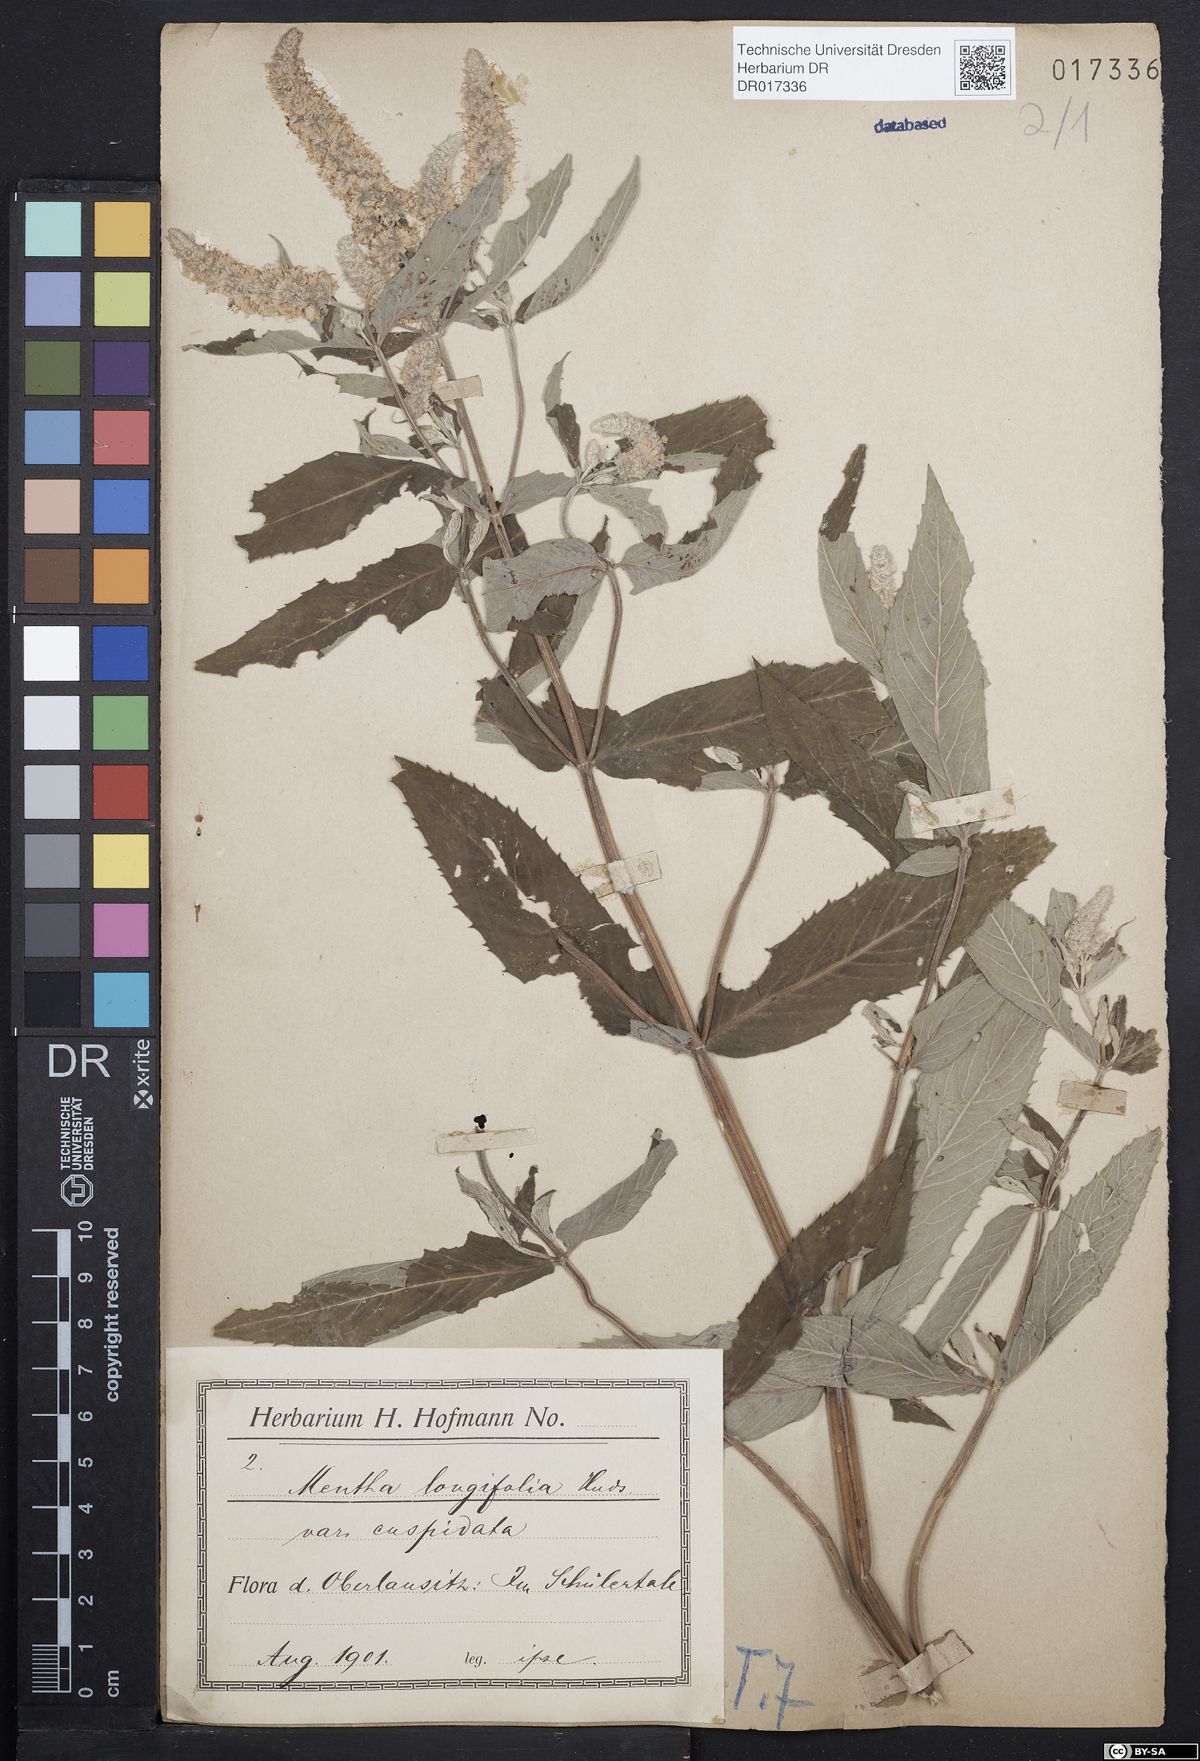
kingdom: Plantae
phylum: Tracheophyta
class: Magnoliopsida
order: Lamiales
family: Lamiaceae
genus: Mentha
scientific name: Mentha longifolia
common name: Horse mint
